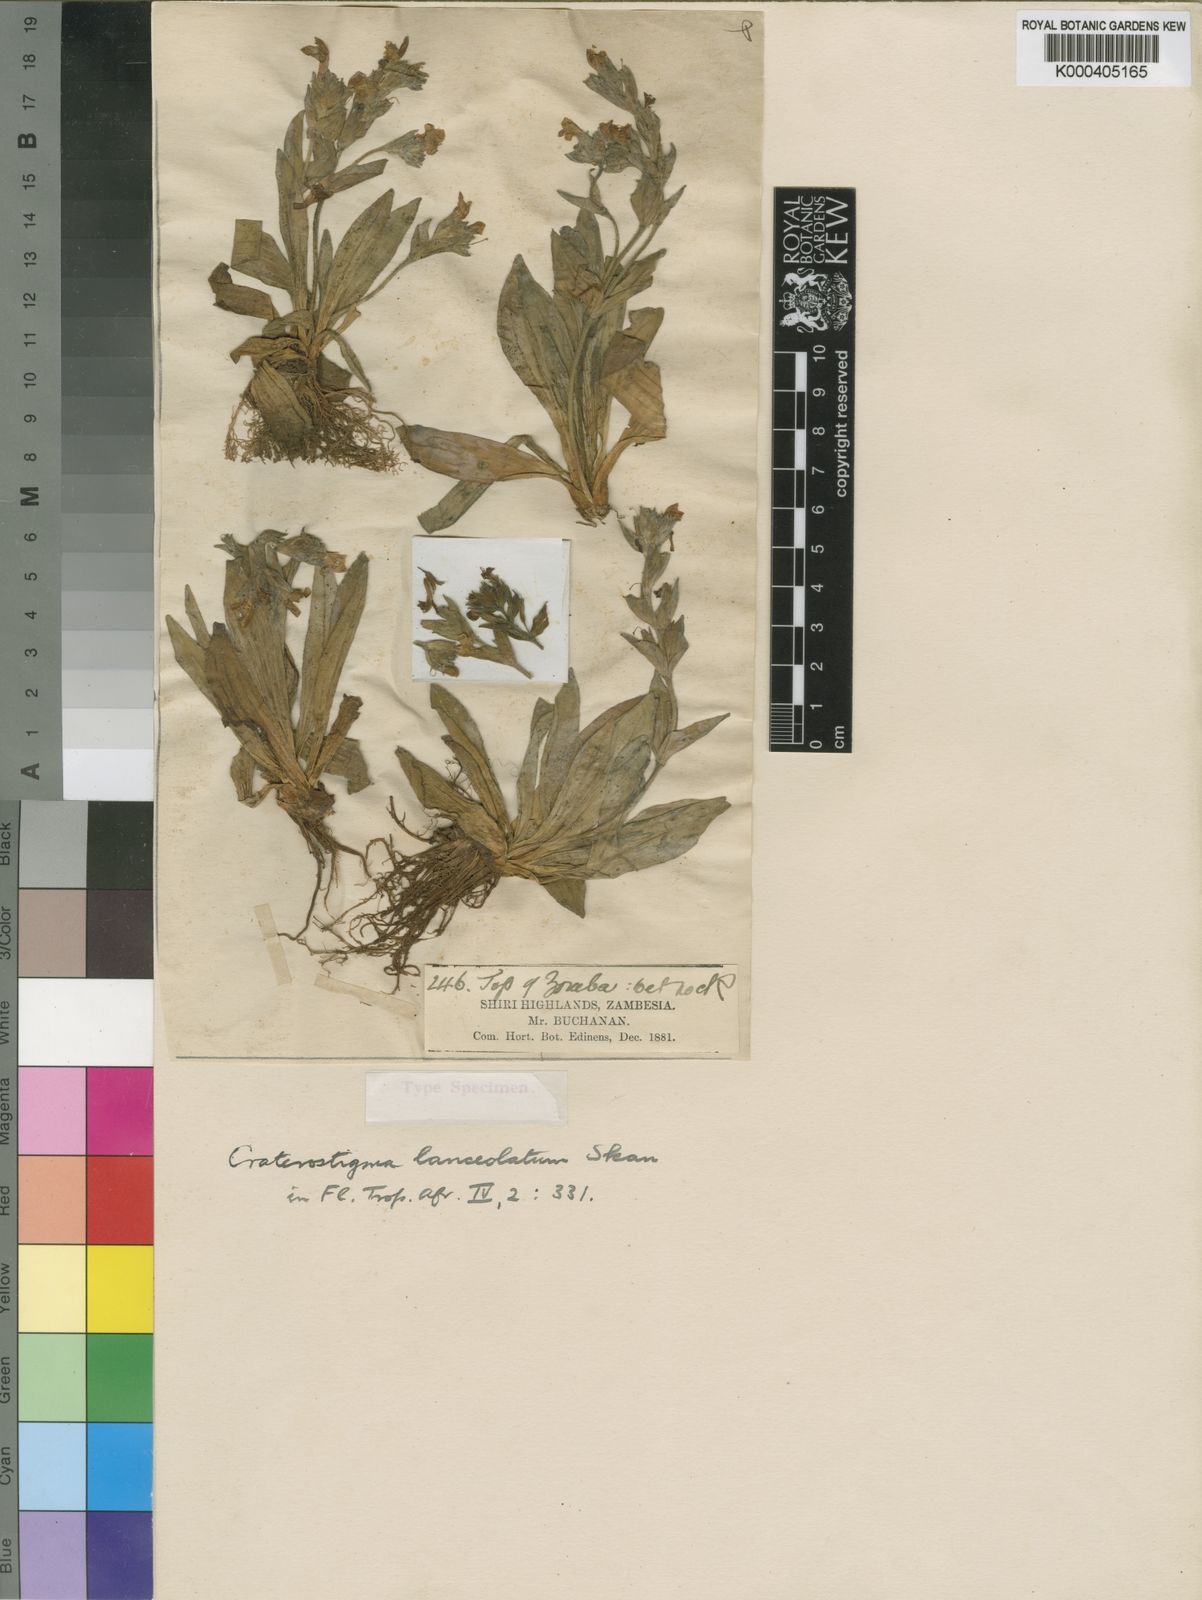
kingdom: Plantae
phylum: Tracheophyta
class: Magnoliopsida
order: Lamiales
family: Linderniaceae
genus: Craterostigma
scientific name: Craterostigma lanceolatum
